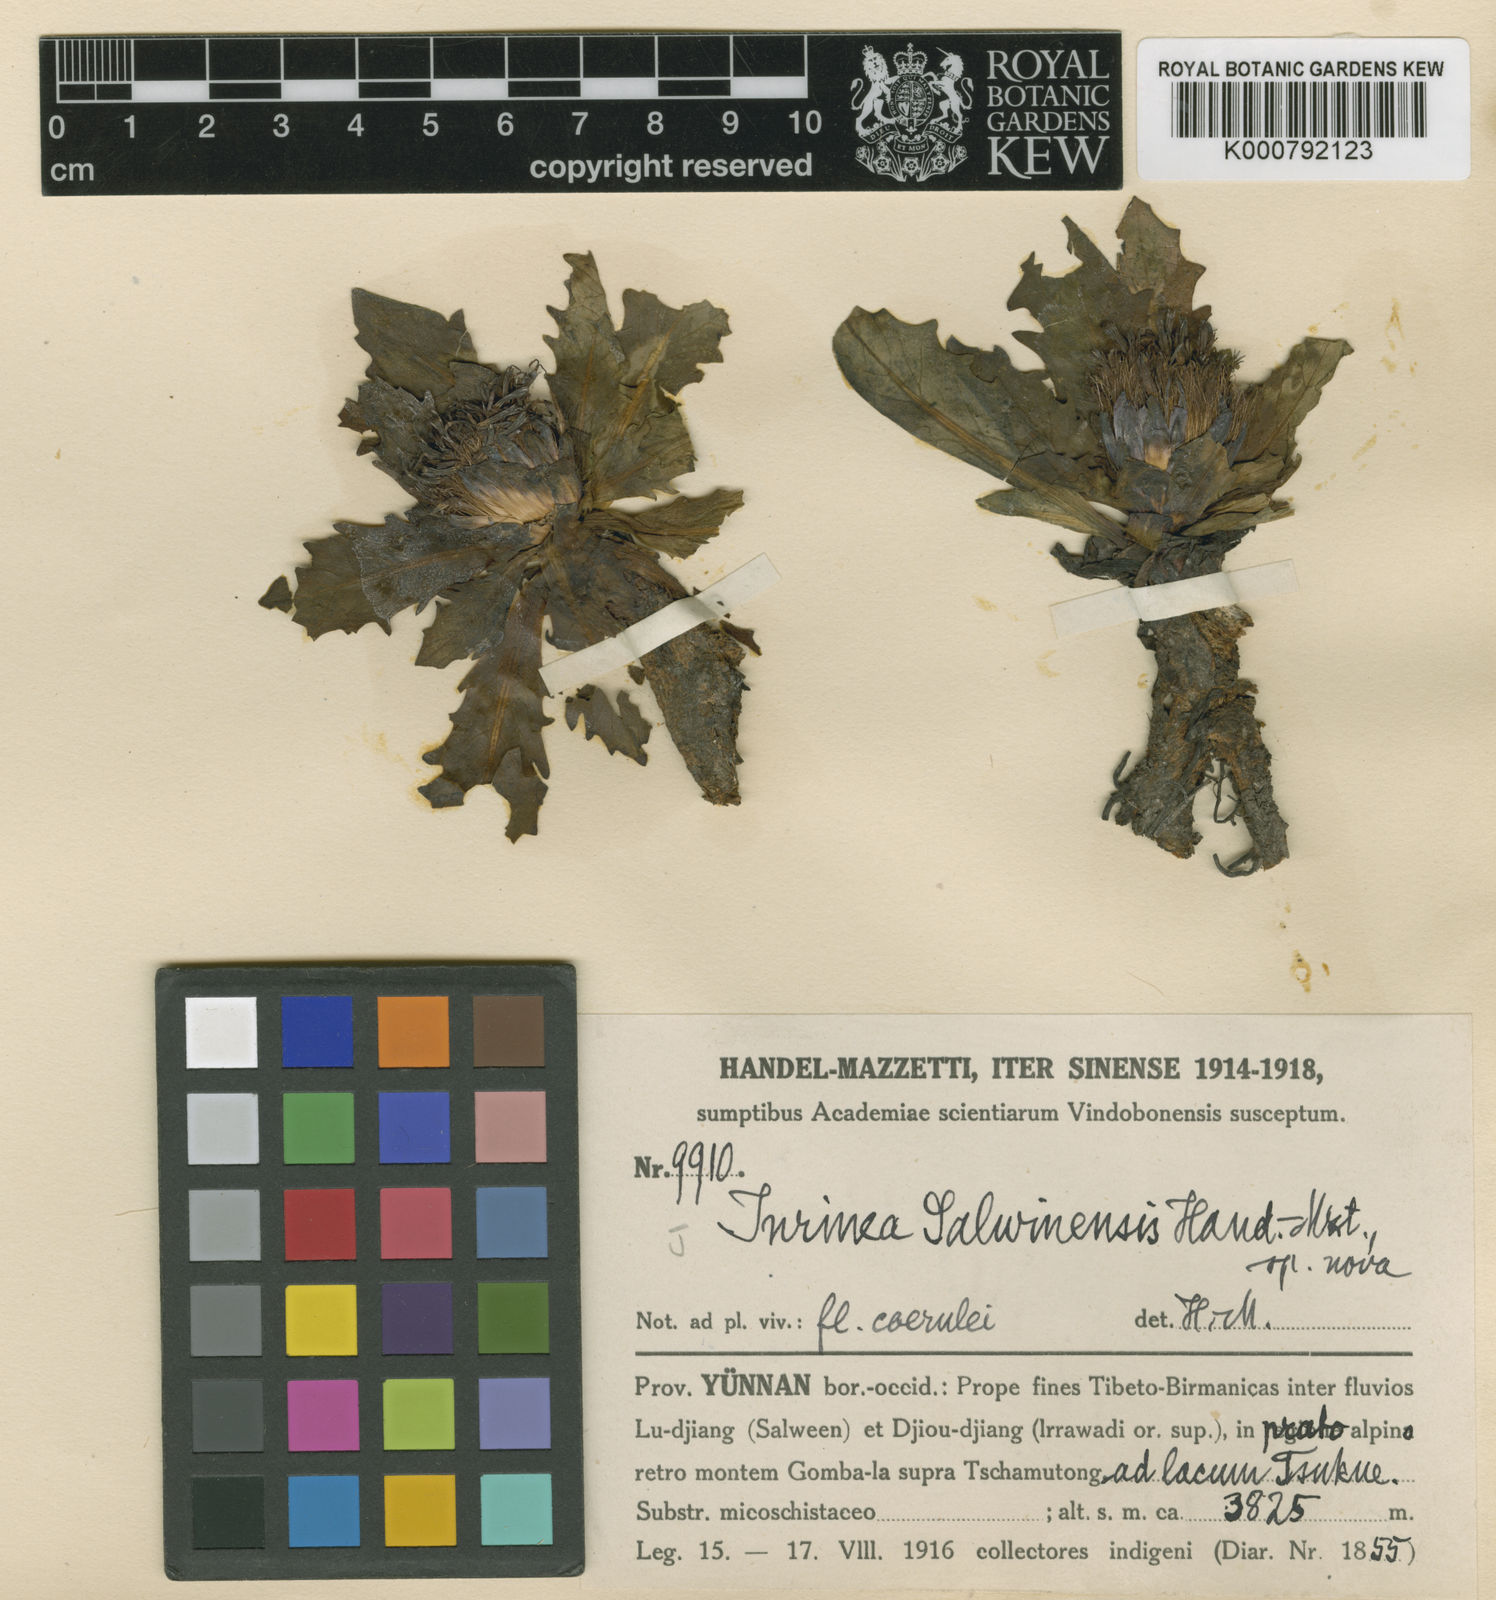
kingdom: Plantae
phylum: Tracheophyta
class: Magnoliopsida
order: Asterales
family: Asteraceae
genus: Dolomiaea
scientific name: Dolomiaea salwinensis
